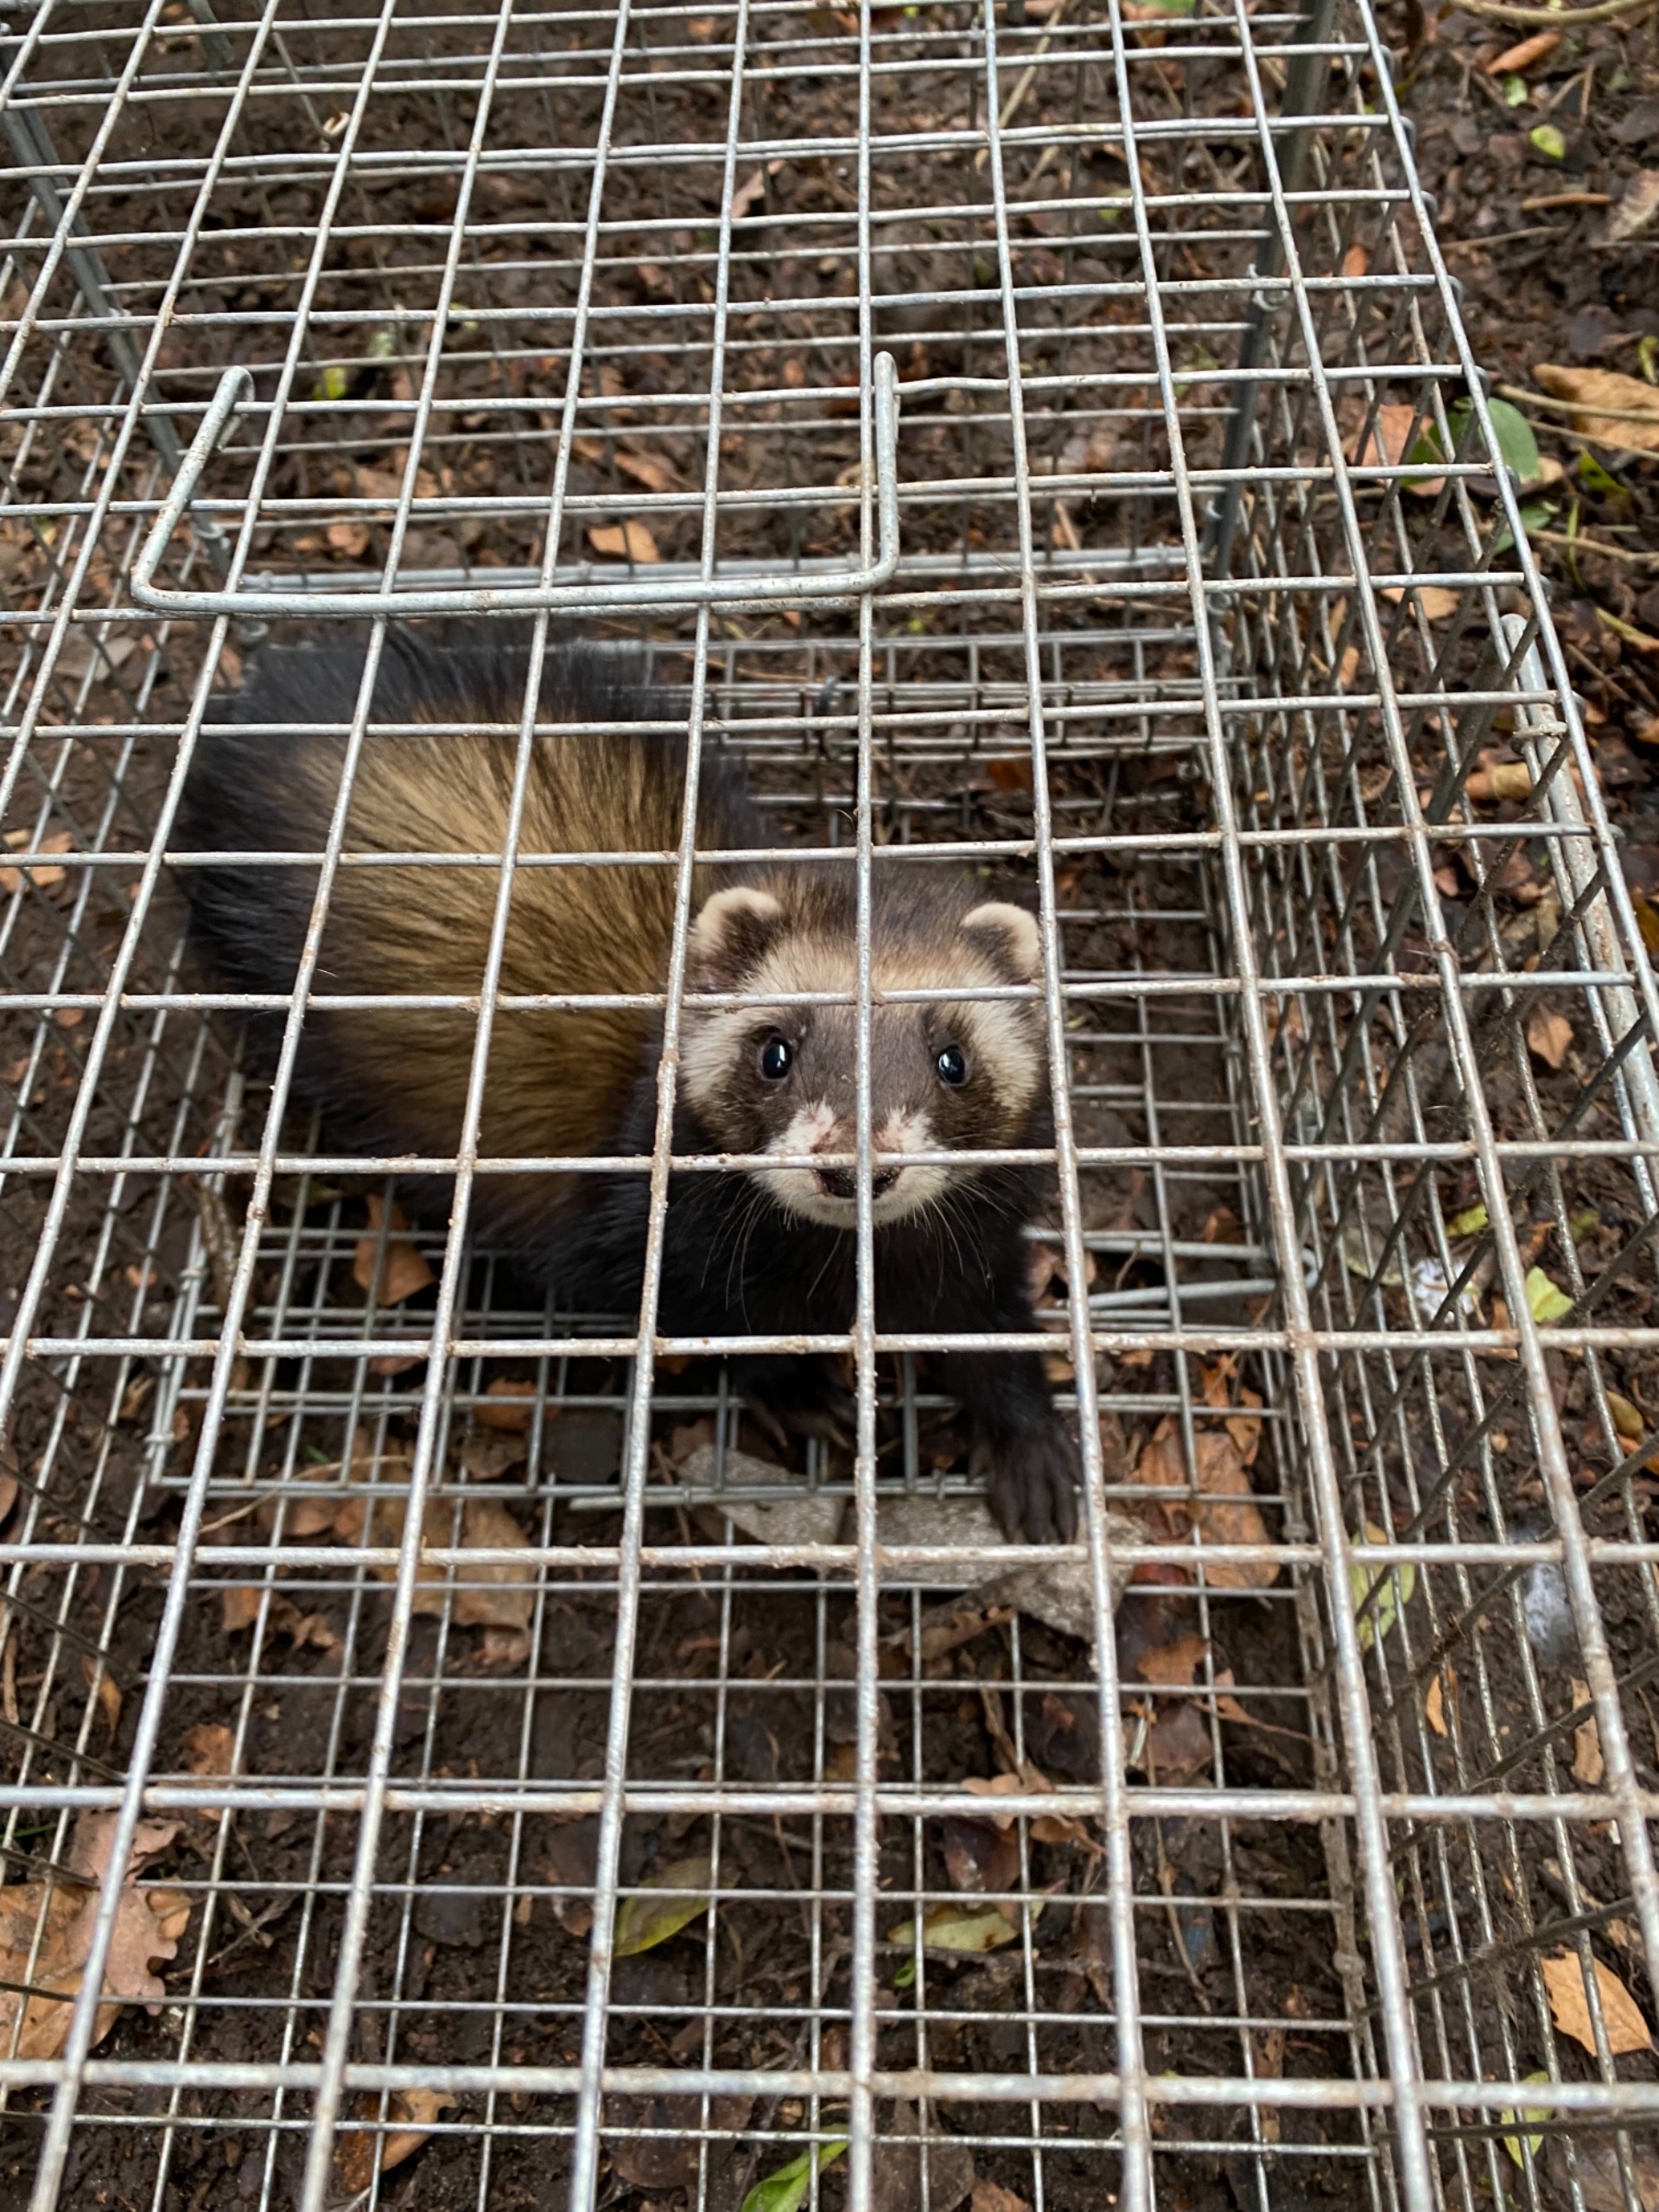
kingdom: Animalia
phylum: Chordata
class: Mammalia
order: Carnivora
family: Mustelidae
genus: Mustela
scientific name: Mustela putorius
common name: Ilder
